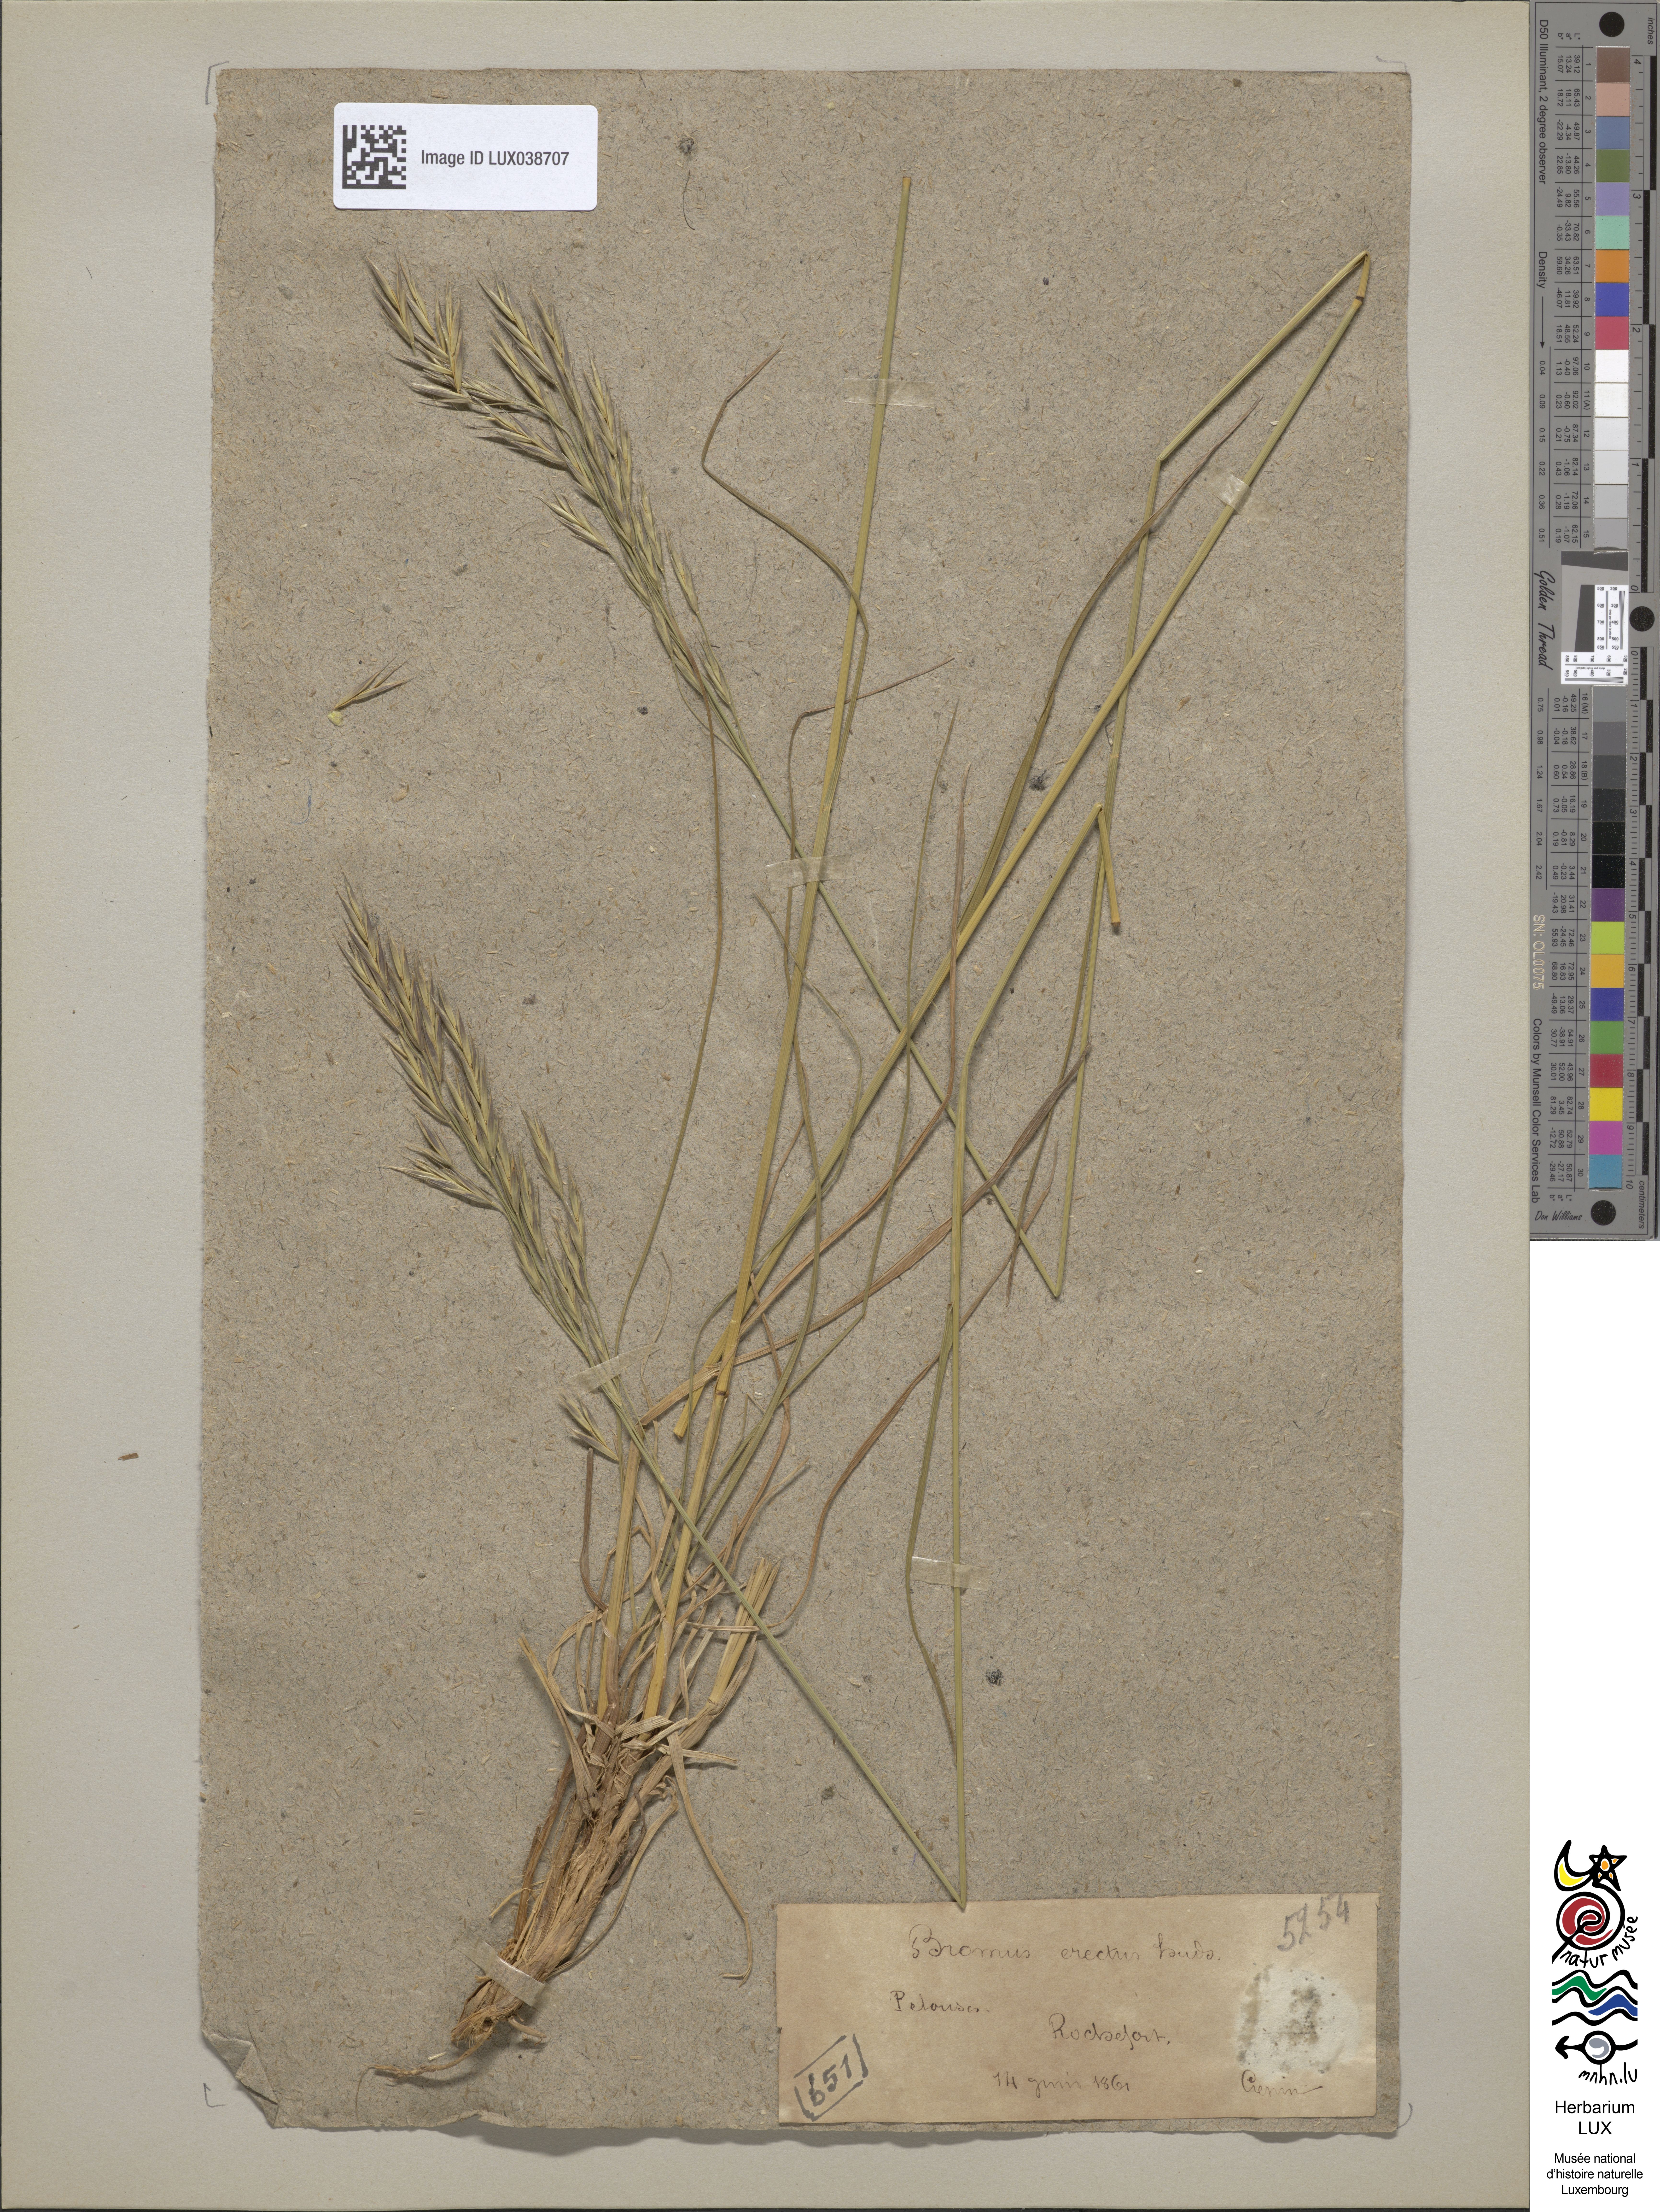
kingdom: Plantae
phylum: Tracheophyta
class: Liliopsida
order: Poales
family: Poaceae
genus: Bromus
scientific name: Bromus erectus
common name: Erect brome
